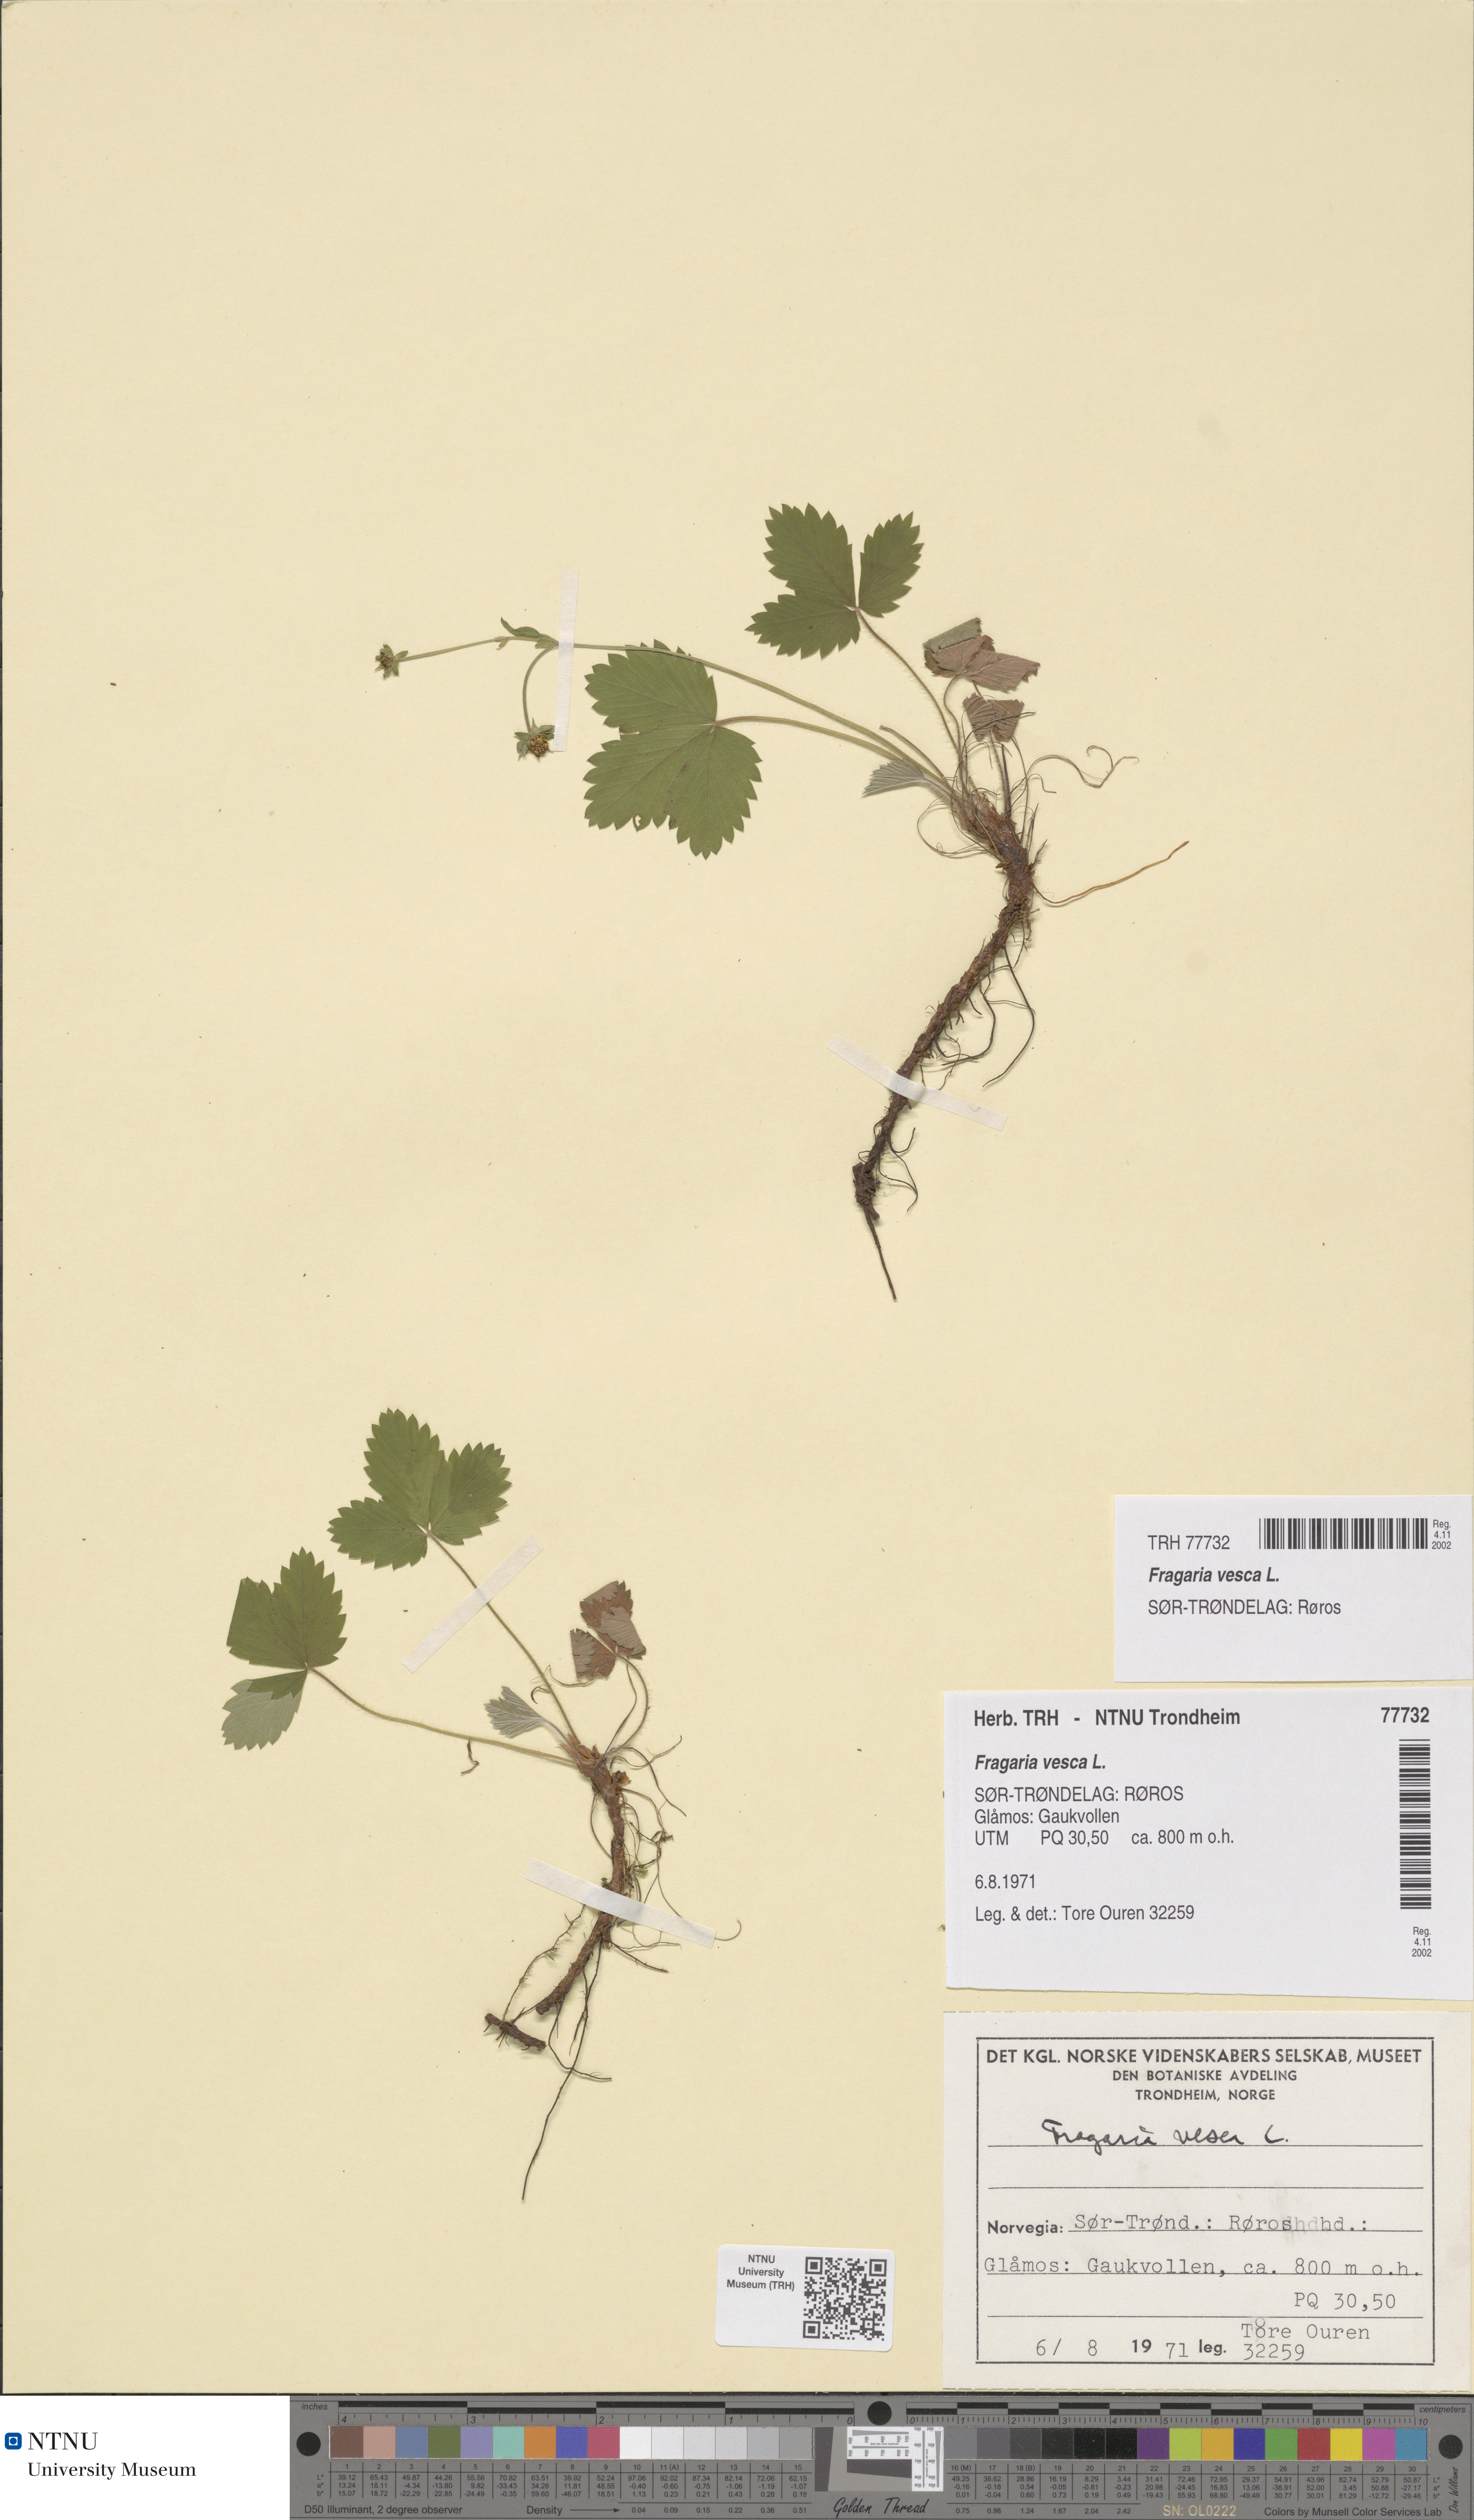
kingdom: Plantae
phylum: Tracheophyta
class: Magnoliopsida
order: Rosales
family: Rosaceae
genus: Fragaria
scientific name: Fragaria vesca
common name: Wild strawberry
